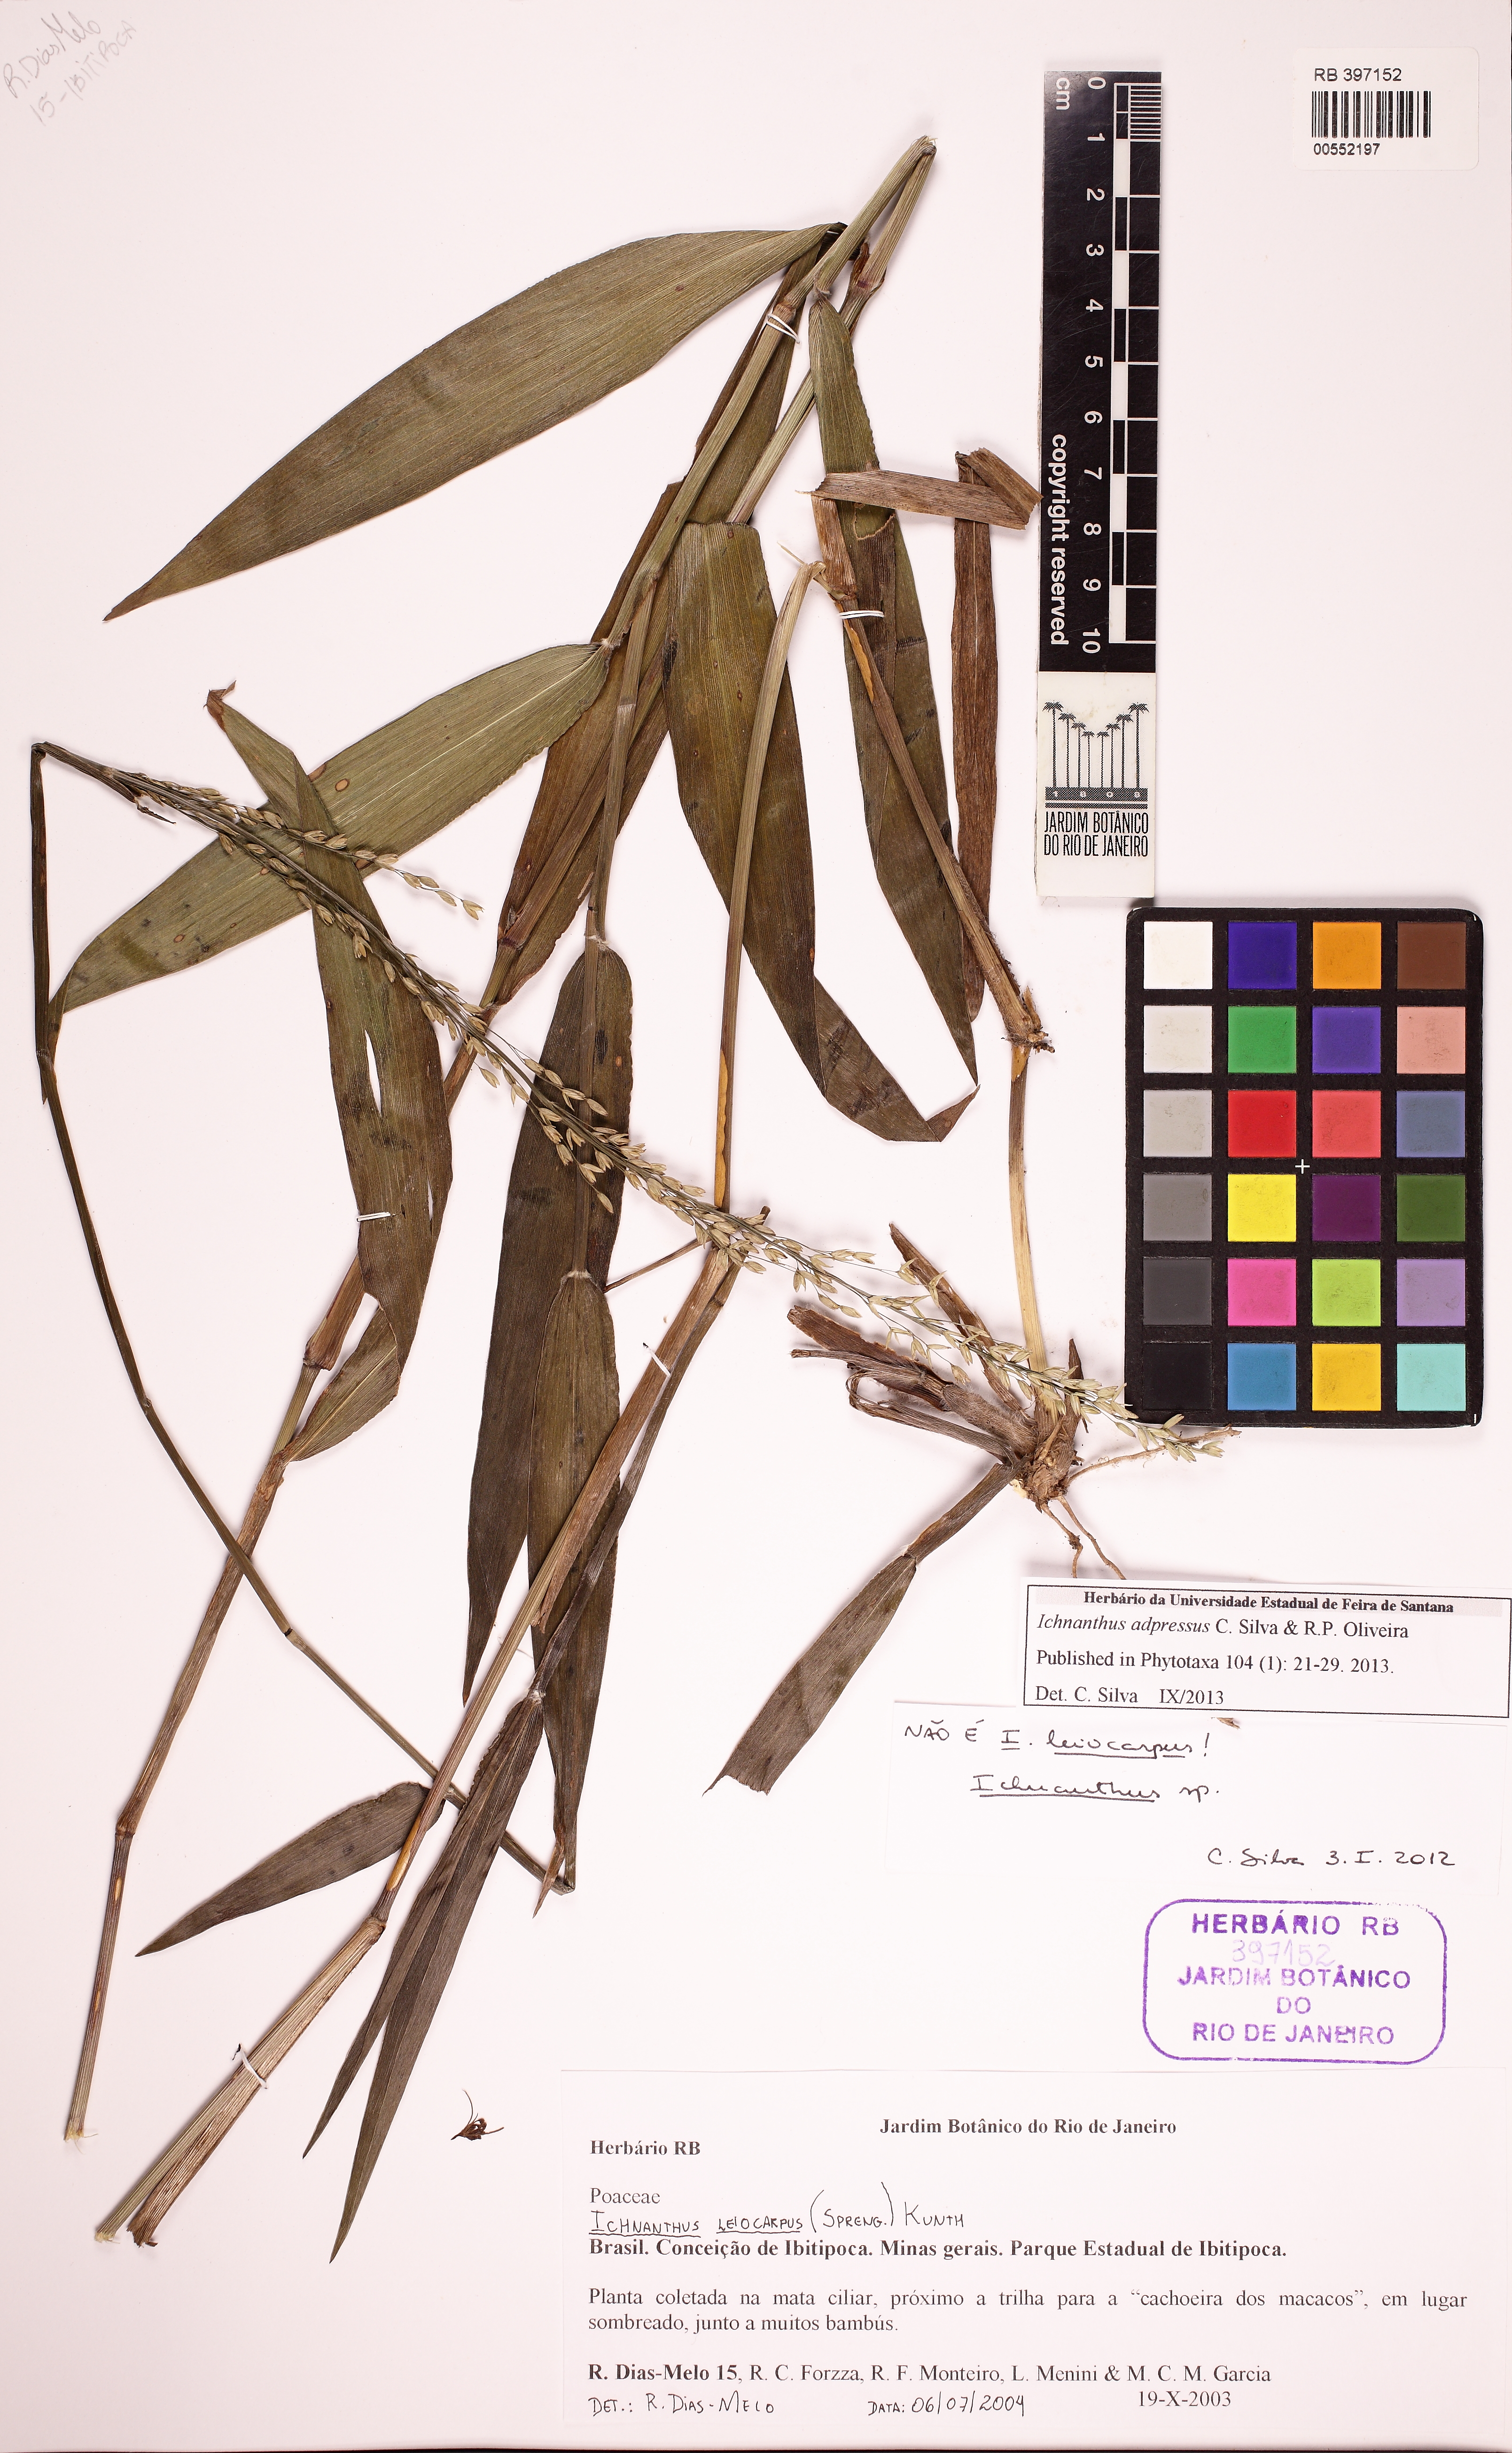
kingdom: Plantae
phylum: Tracheophyta
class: Liliopsida
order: Poales
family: Poaceae
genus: Ichnanthus
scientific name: Ichnanthus adpressus
